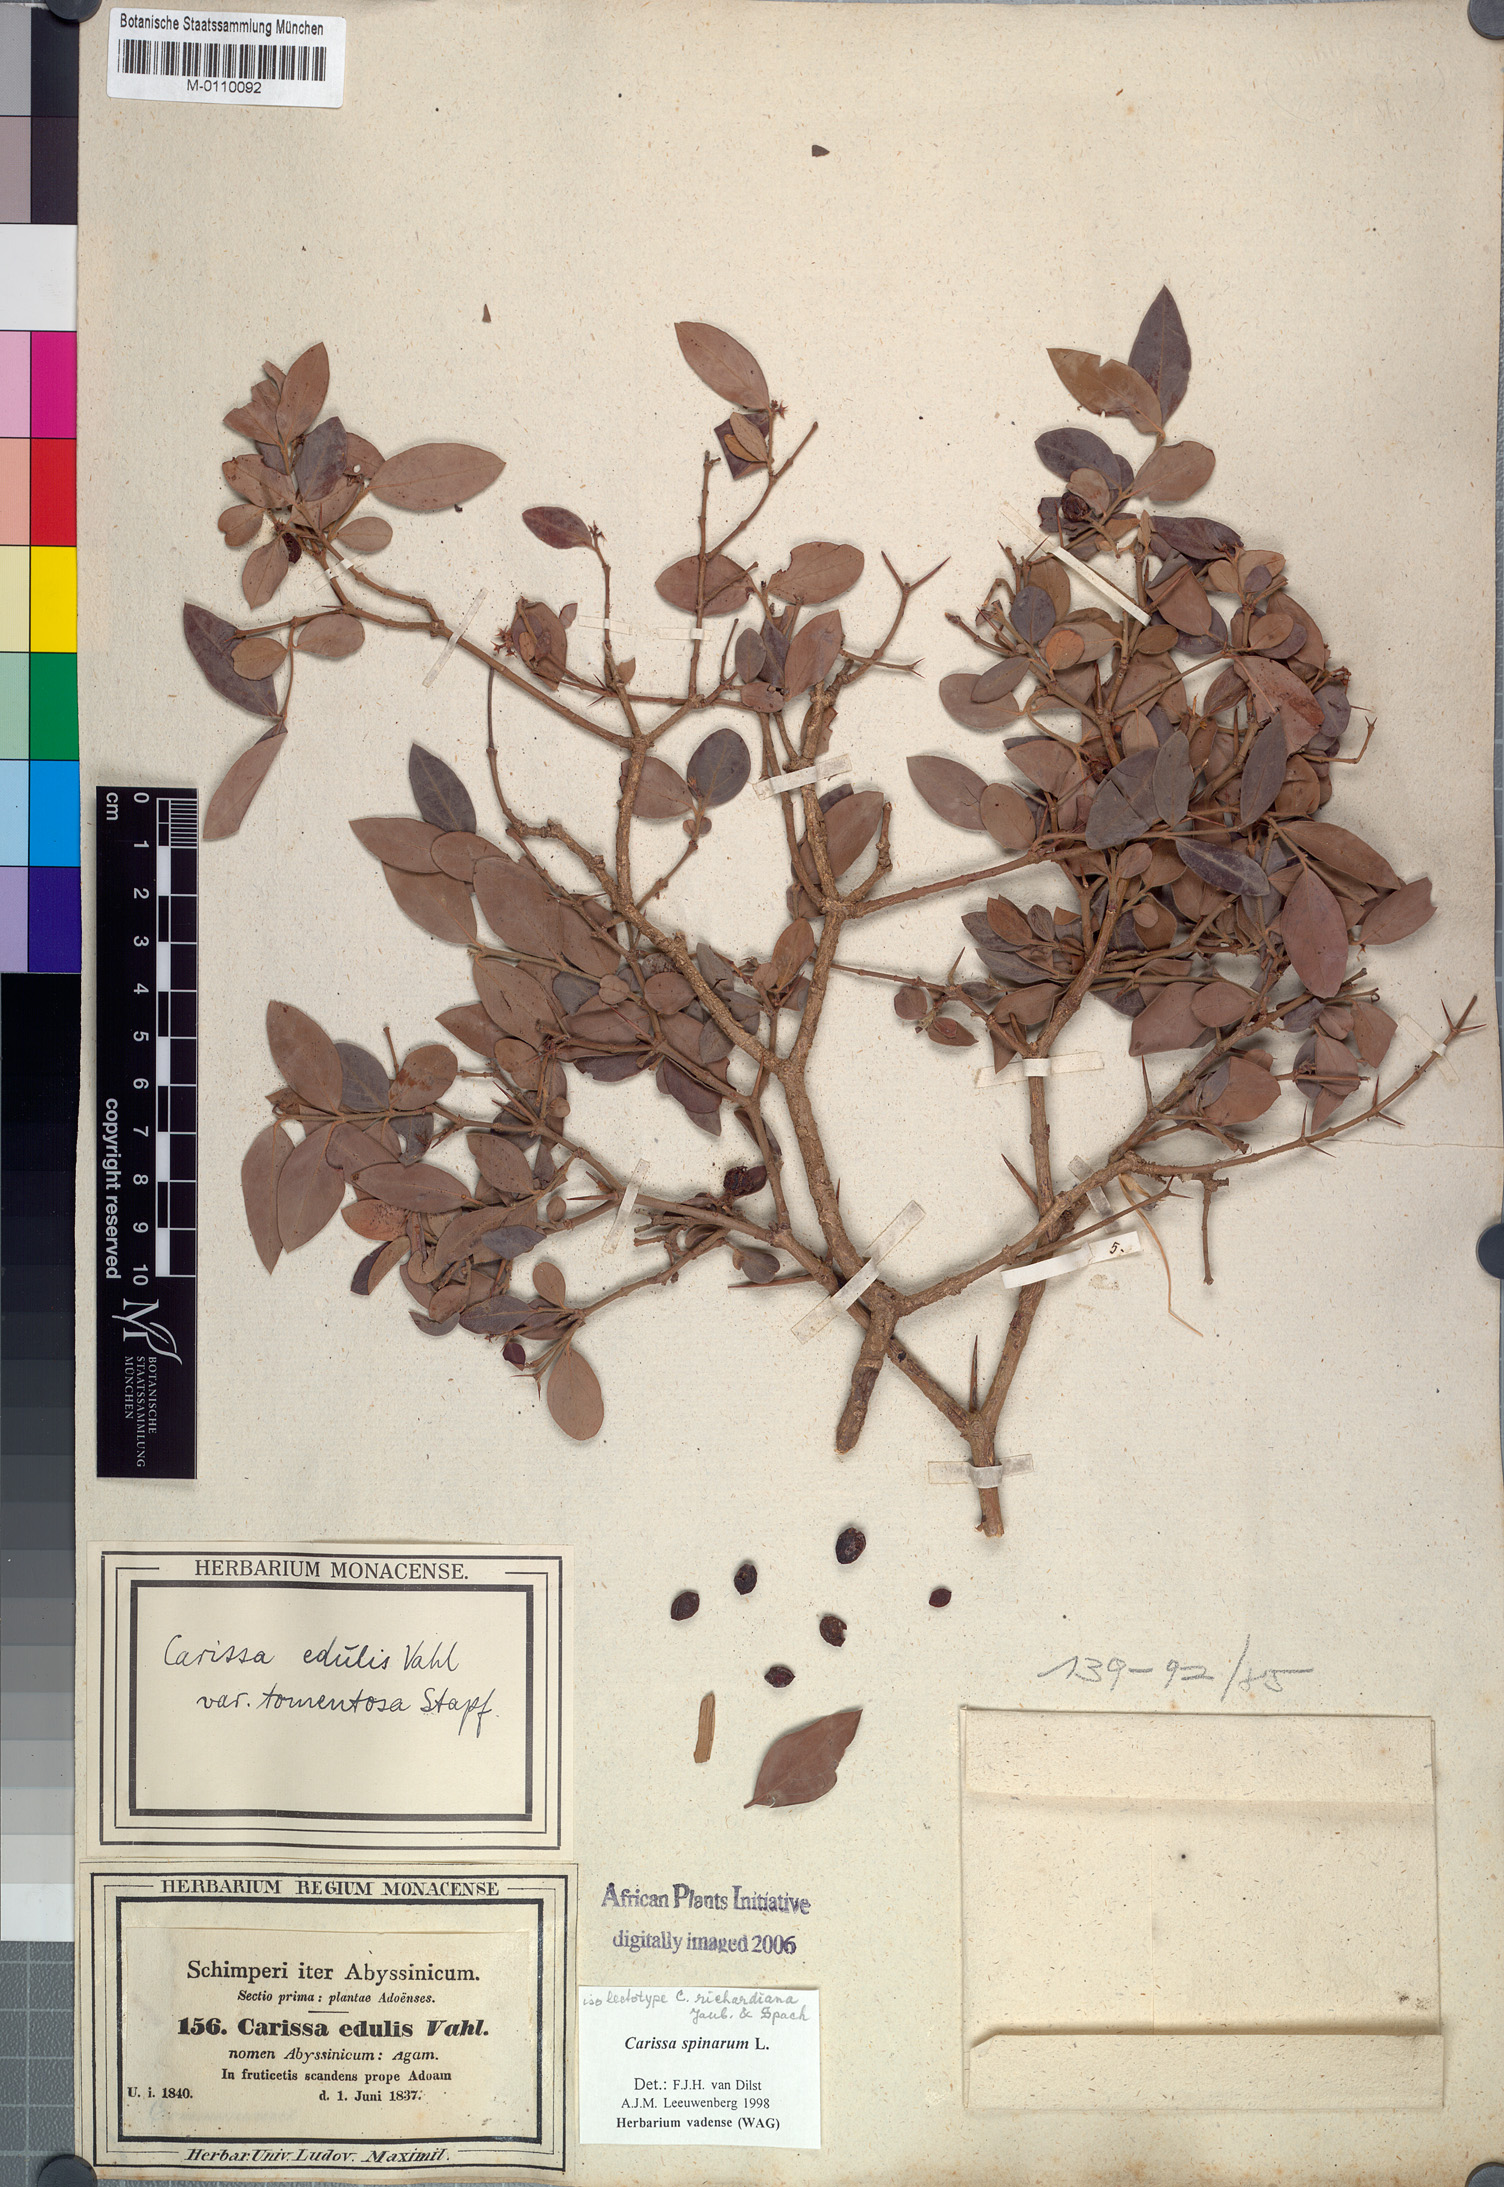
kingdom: Plantae
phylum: Tracheophyta
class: Magnoliopsida
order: Gentianales
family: Apocynaceae
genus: Carissa
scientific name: Carissa spinarum
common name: Egyptian carissa
